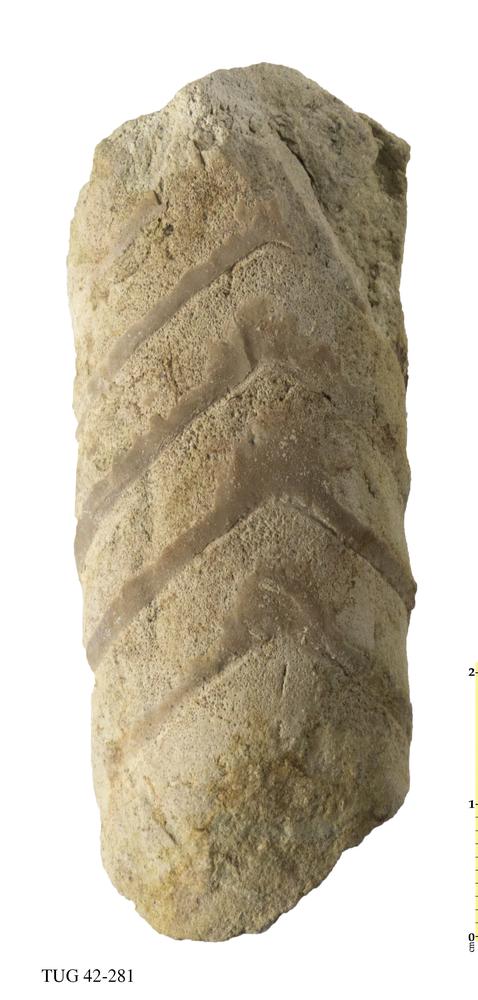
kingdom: Animalia
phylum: Mollusca
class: Cephalopoda
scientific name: Cephalopoda
